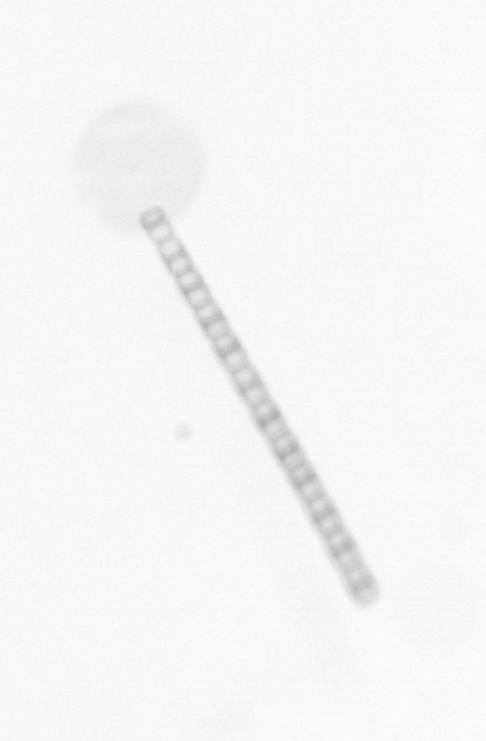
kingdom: Chromista
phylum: Ochrophyta
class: Bacillariophyceae
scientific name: Bacillariophyceae
